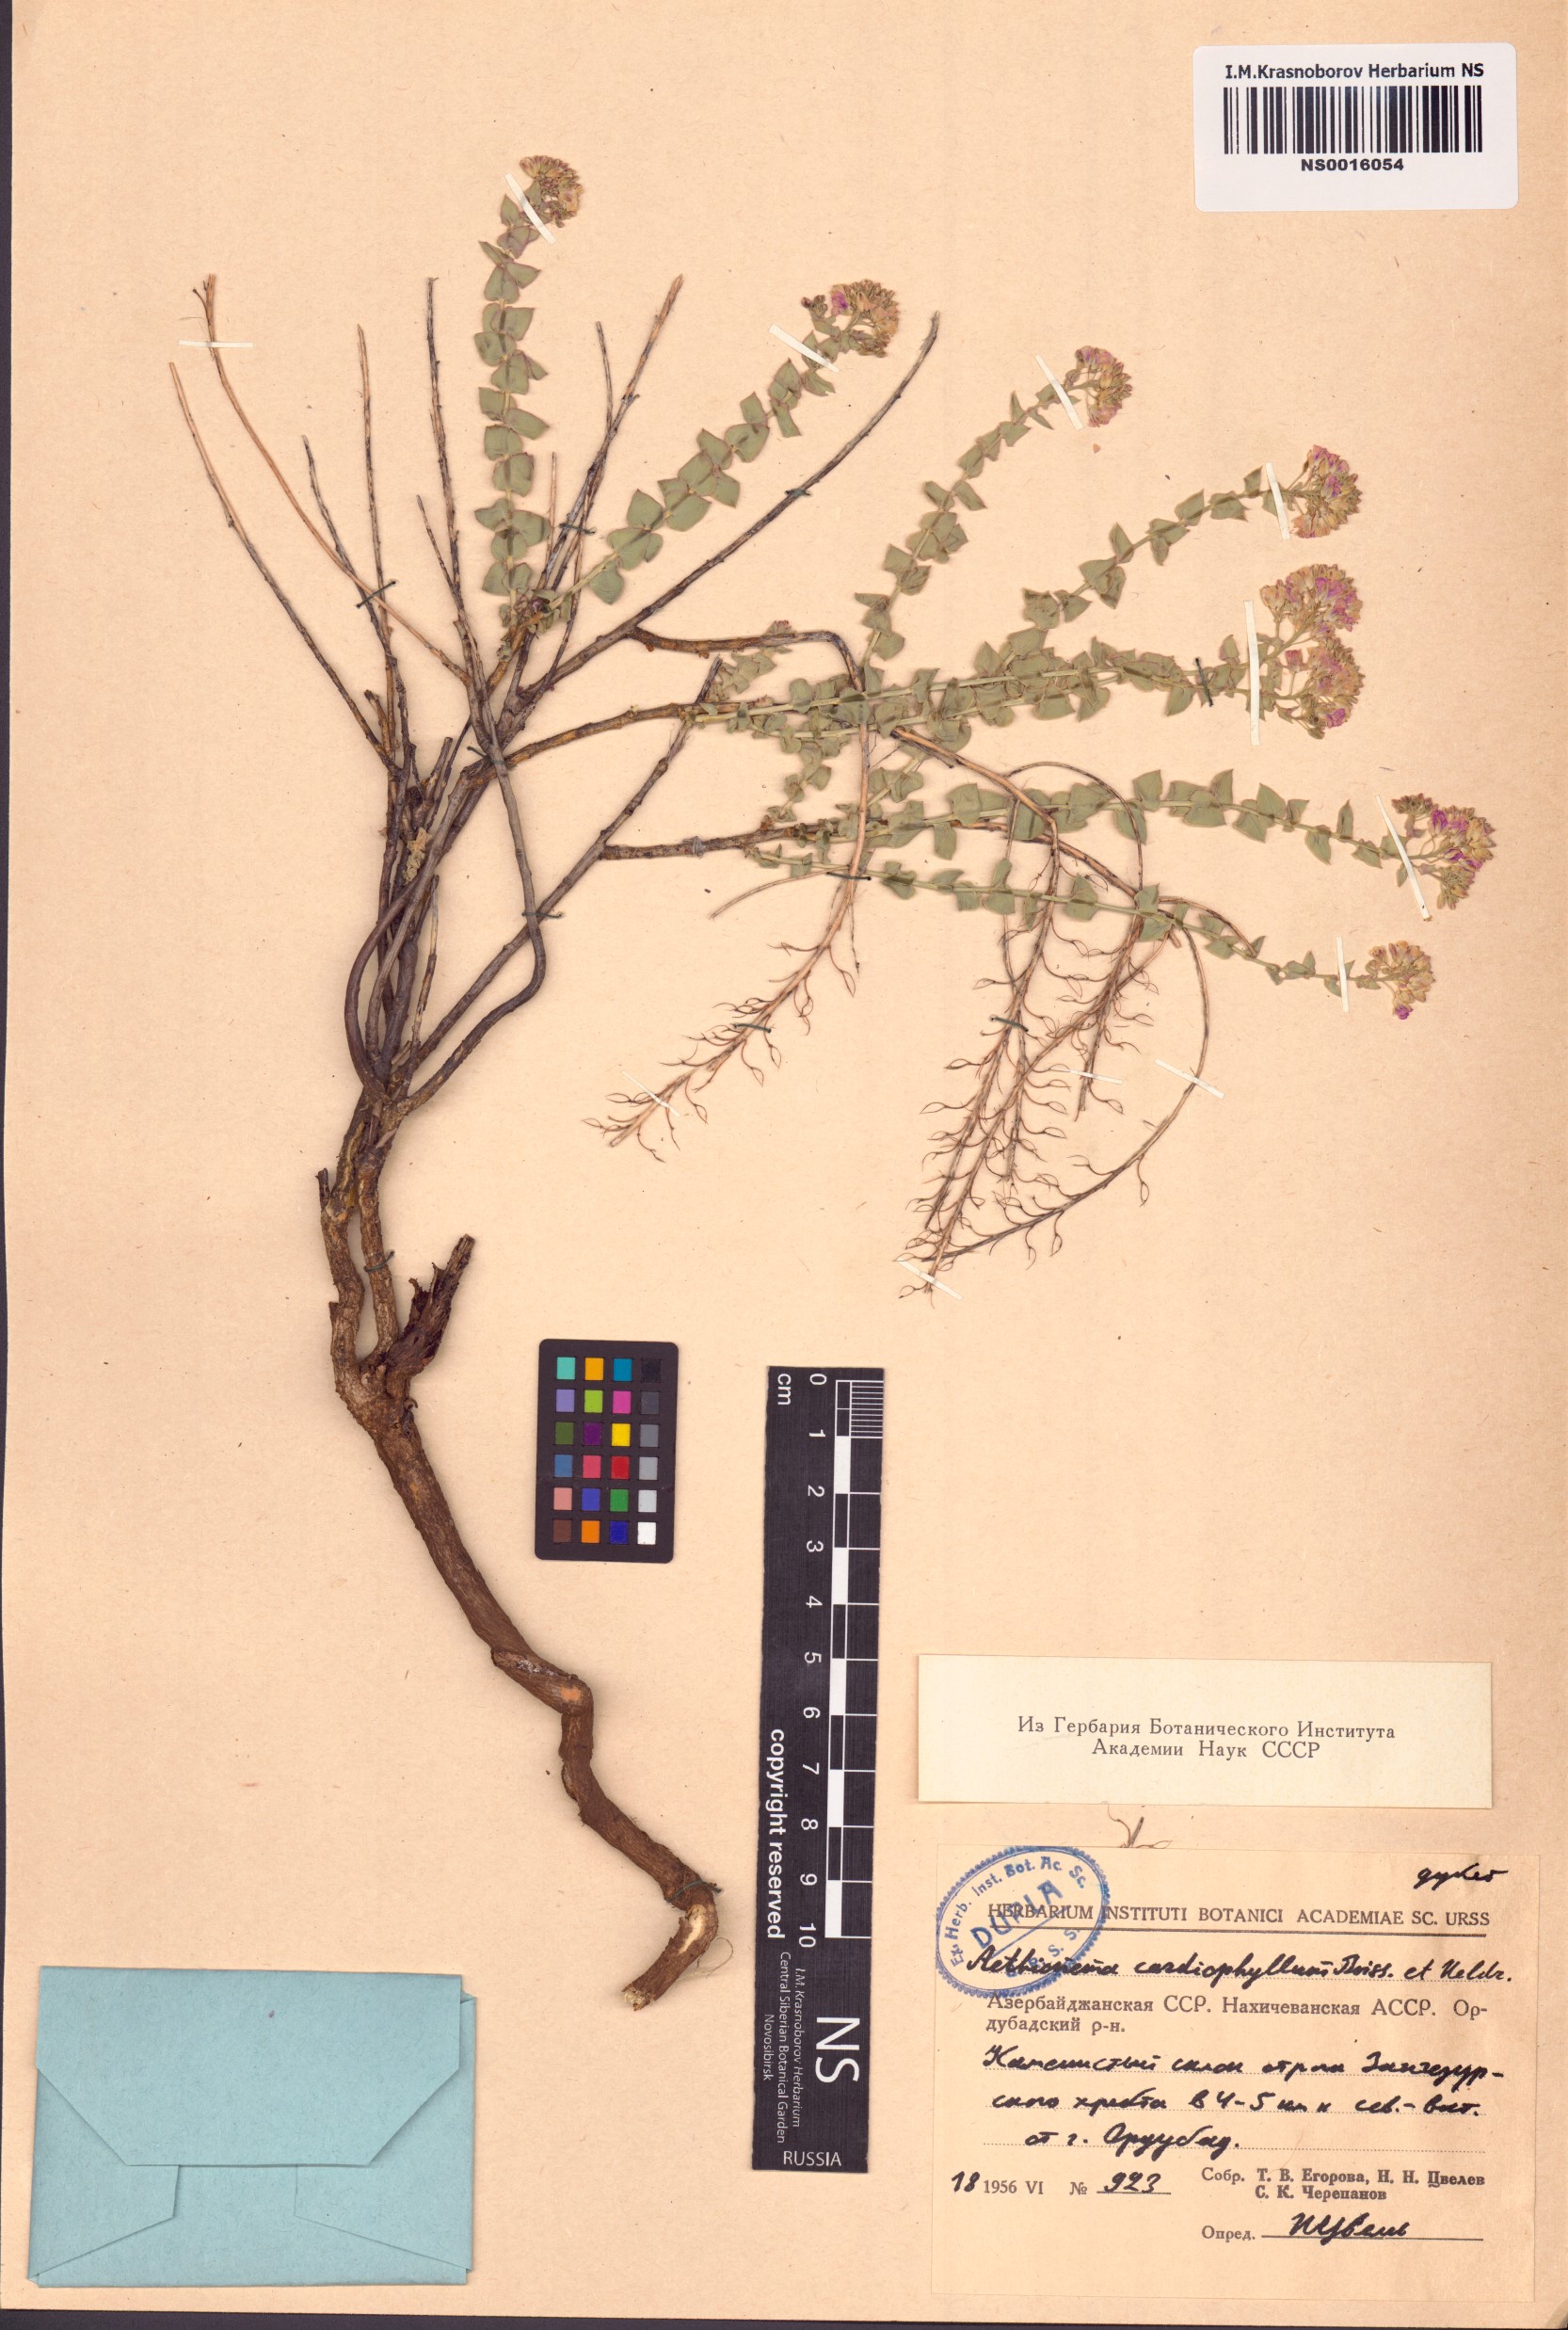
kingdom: Plantae
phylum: Tracheophyta
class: Magnoliopsida
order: Brassicales
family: Brassicaceae
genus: Aethionema
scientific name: Aethionema cordatum
